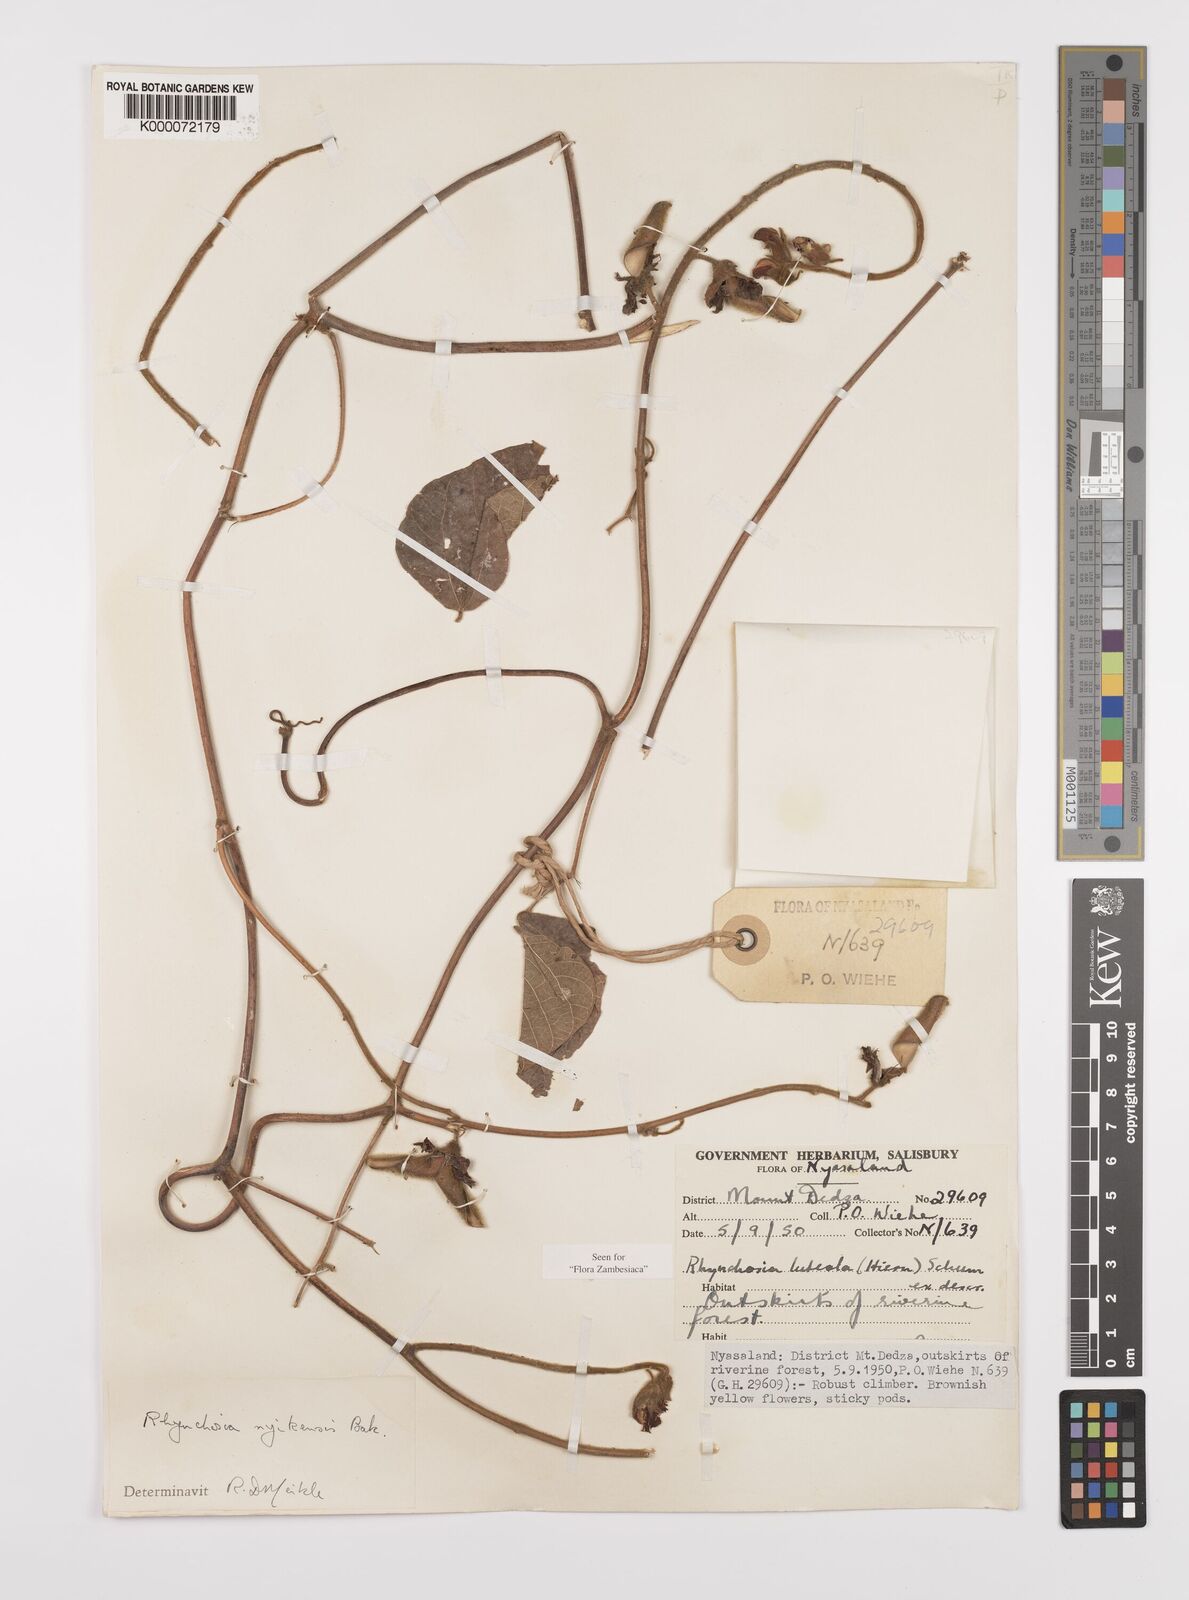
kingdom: Plantae
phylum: Tracheophyta
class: Magnoliopsida
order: Fabales
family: Fabaceae
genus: Rhynchosia
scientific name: Rhynchosia nyikensis
